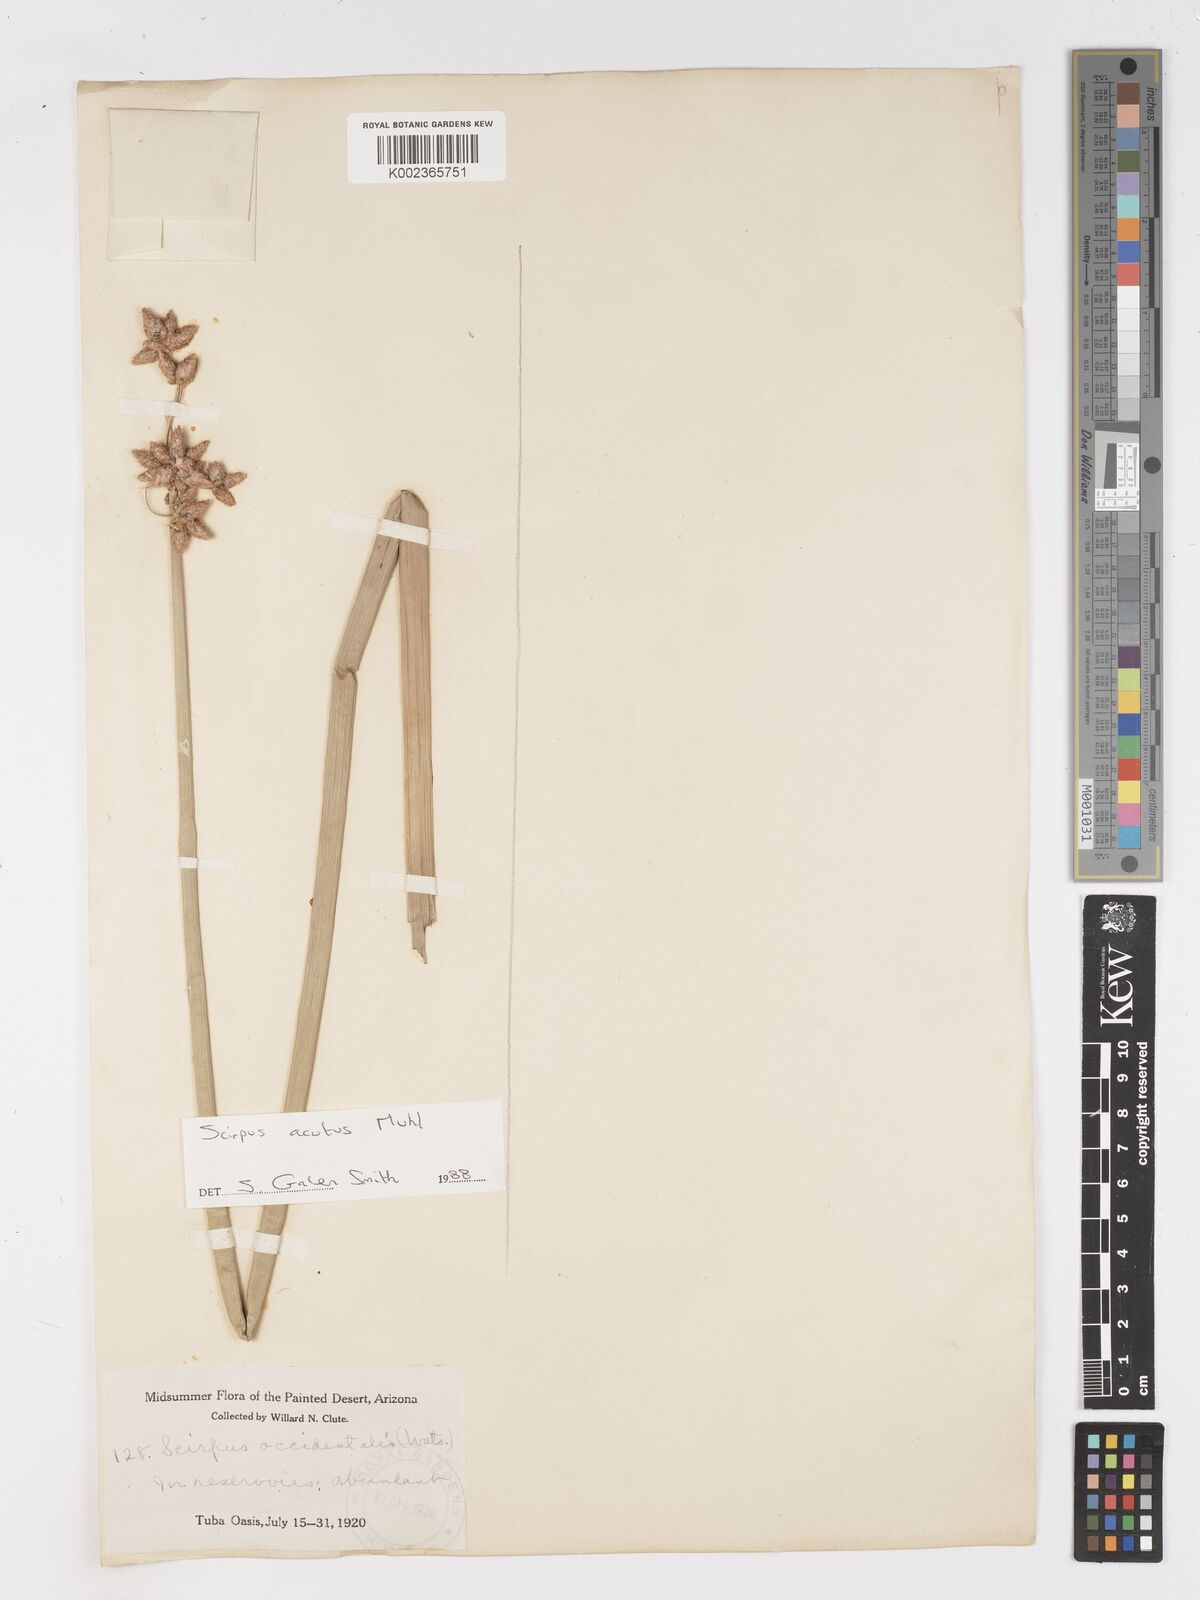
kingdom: Plantae
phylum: Tracheophyta
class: Liliopsida
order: Poales
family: Cyperaceae
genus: Schoenoplectus
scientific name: Schoenoplectus
